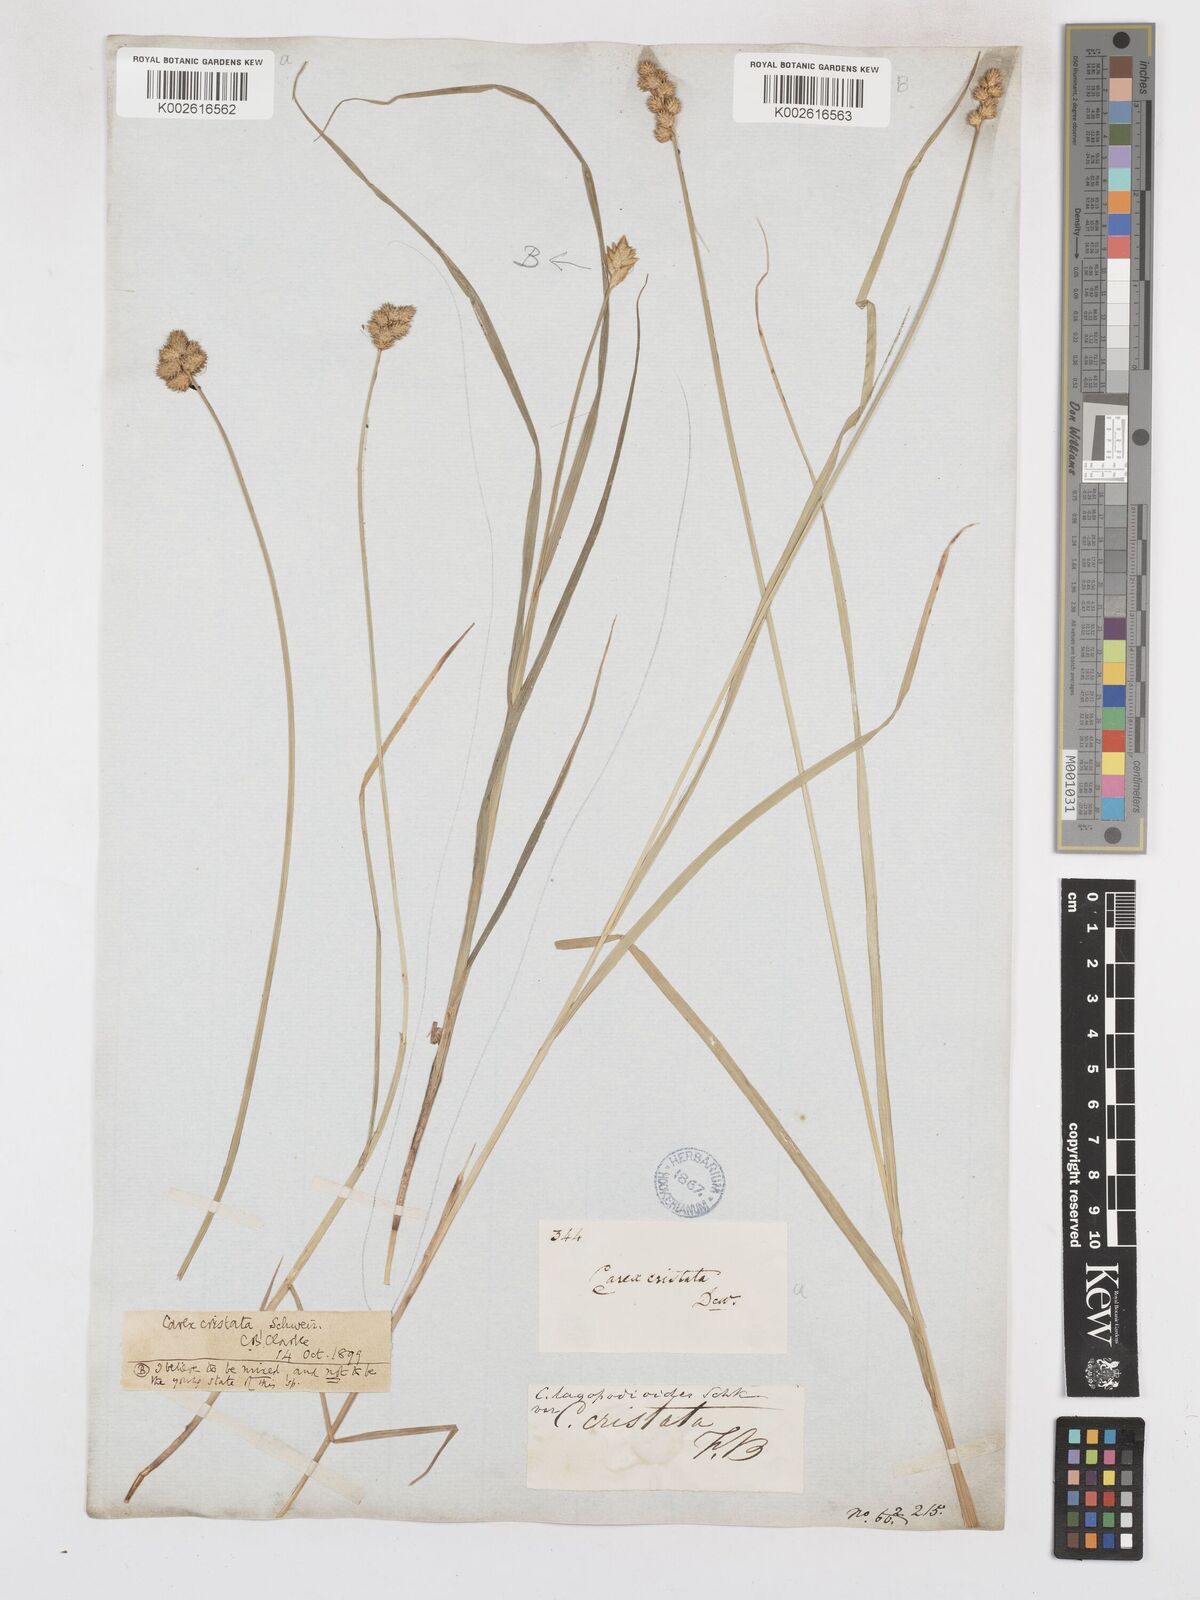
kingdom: Plantae
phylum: Tracheophyta
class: Liliopsida
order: Poales
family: Cyperaceae
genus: Carex
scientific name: Carex cristatella
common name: Crested oval sedge
